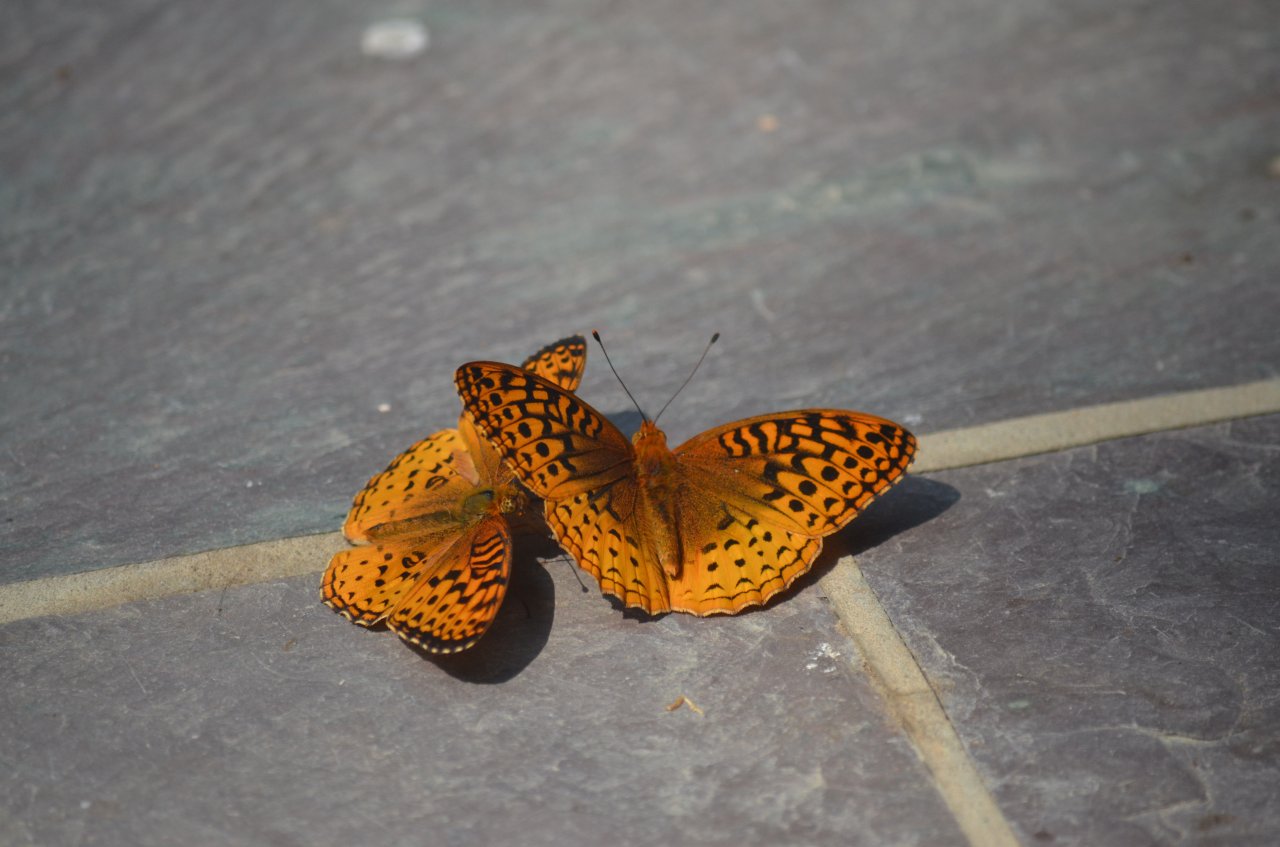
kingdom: Animalia
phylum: Arthropoda
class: Insecta
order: Lepidoptera
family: Nymphalidae
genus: Speyeria
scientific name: Speyeria aphrodite
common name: Aphrodite Fritillary
